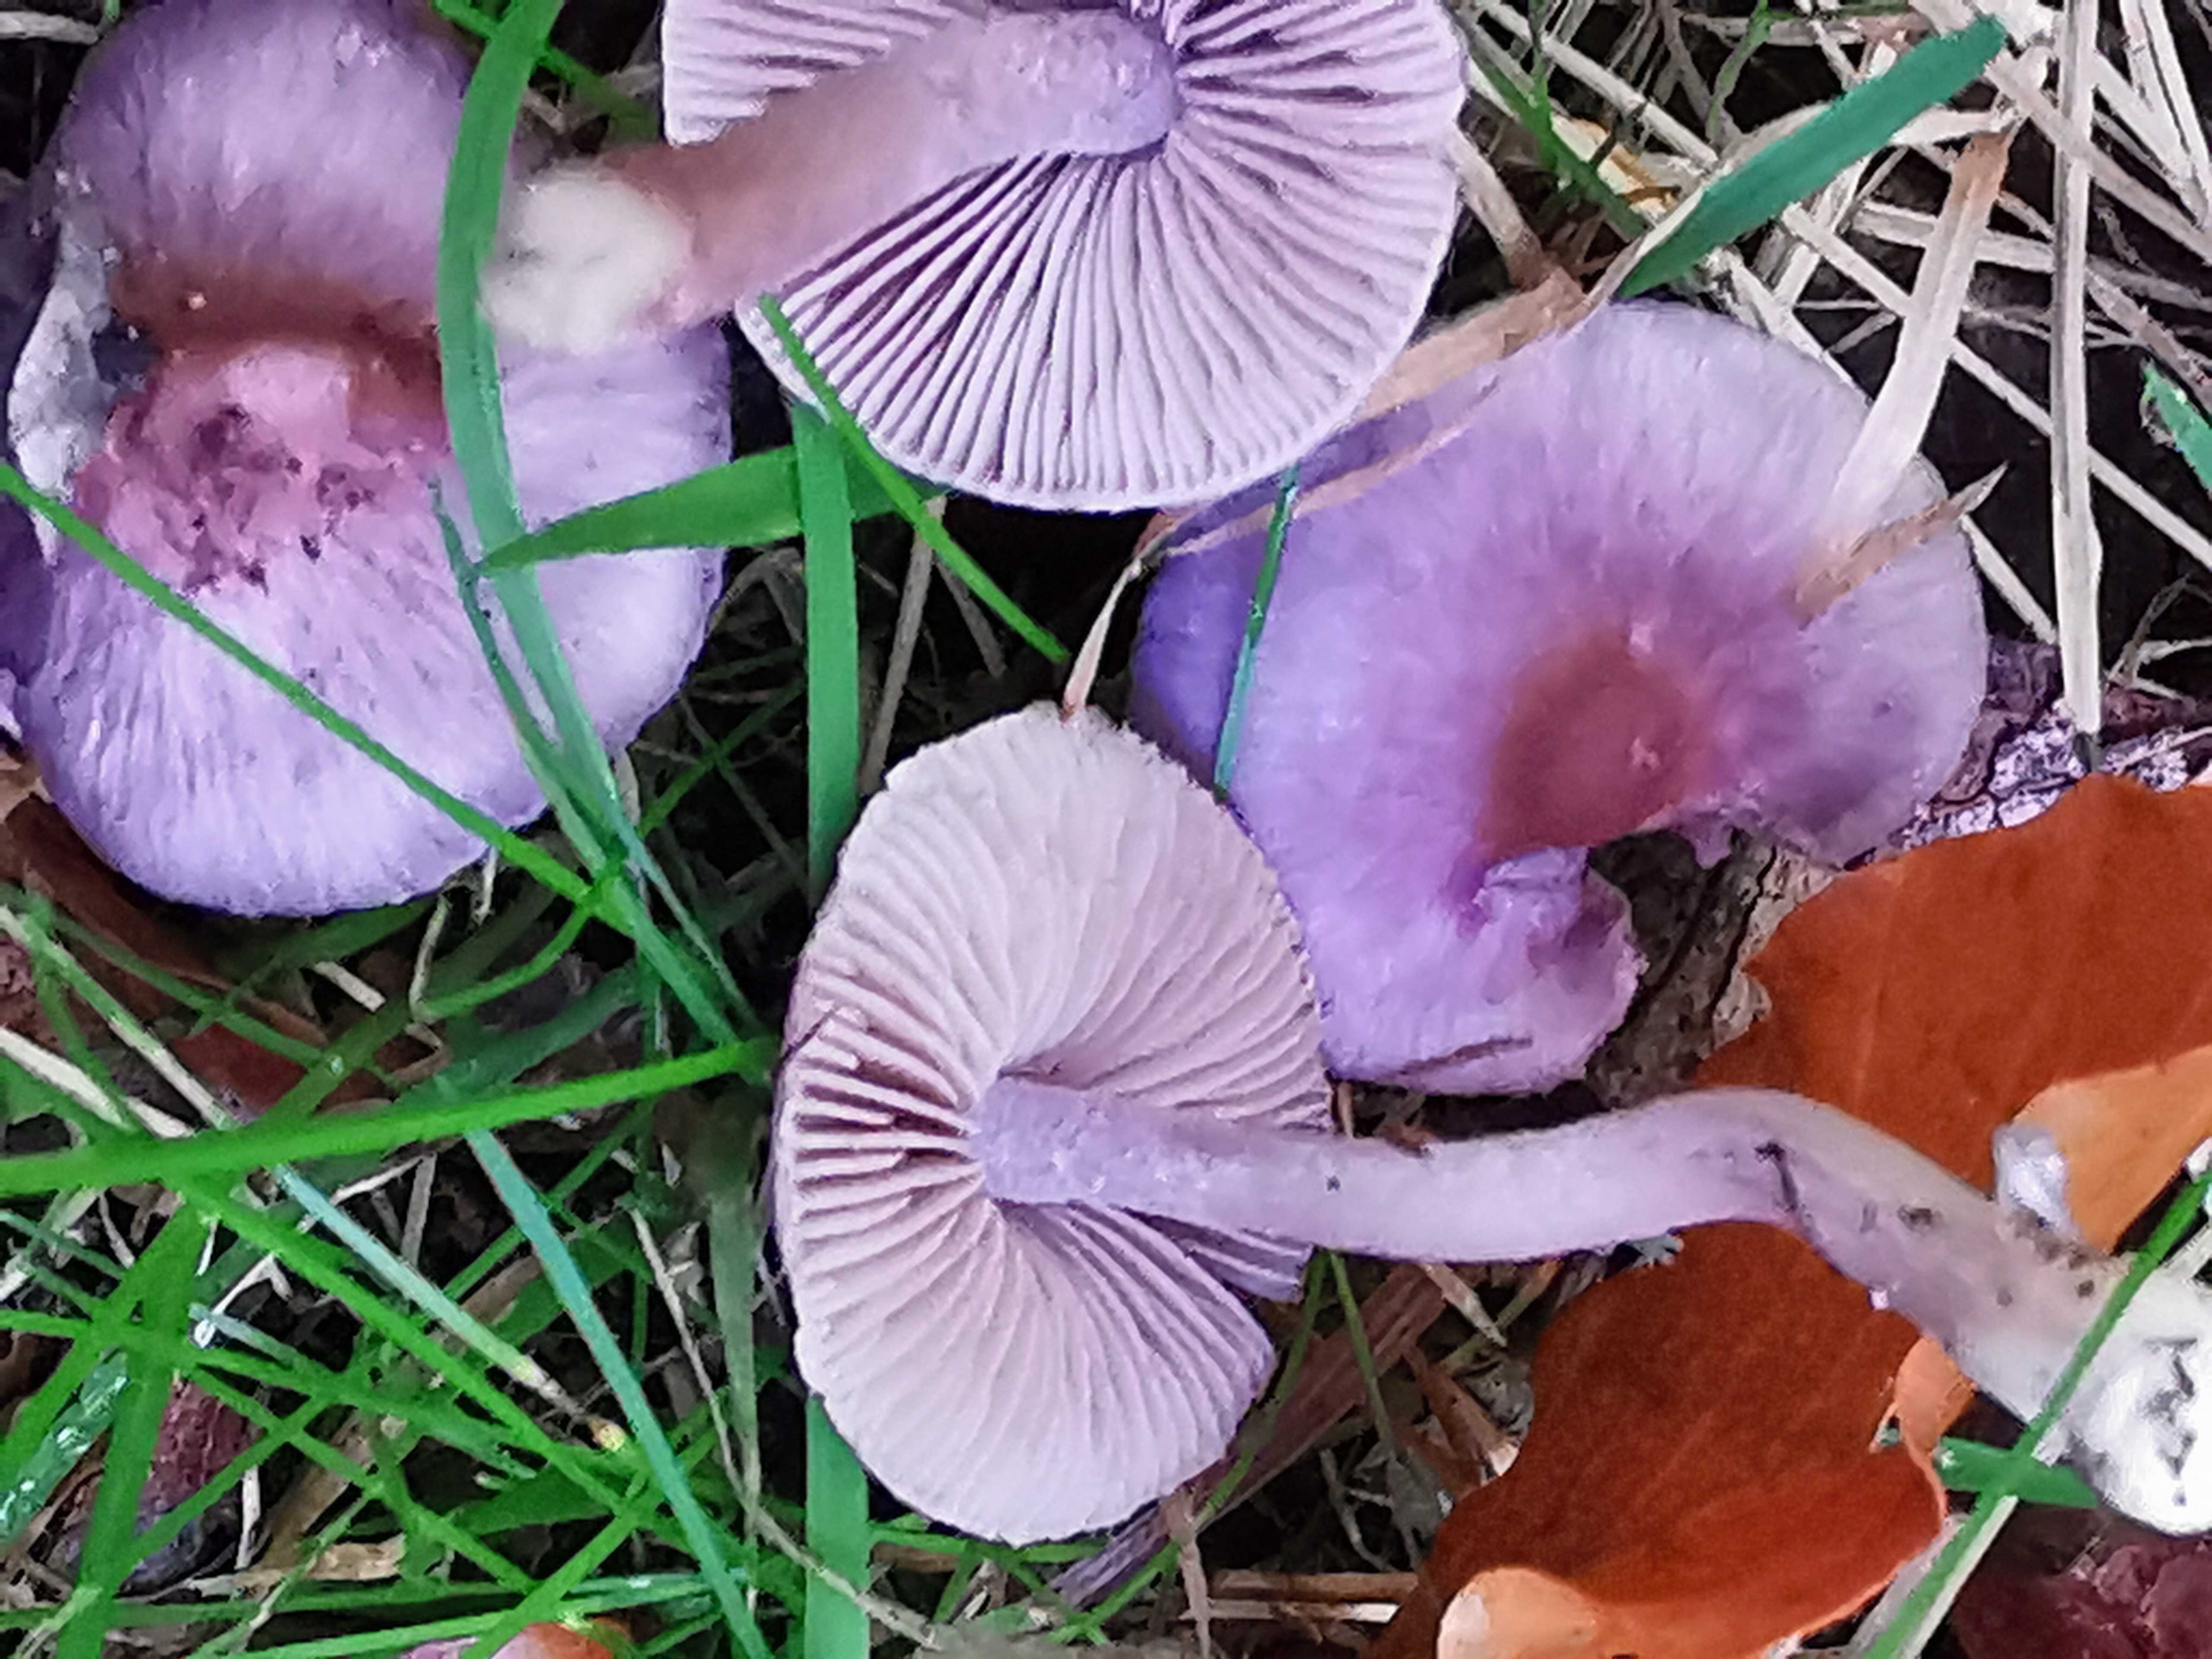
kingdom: Fungi
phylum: Basidiomycota
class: Agaricomycetes
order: Agaricales
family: Inocybaceae
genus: Inocybe
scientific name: Inocybe geophylla
